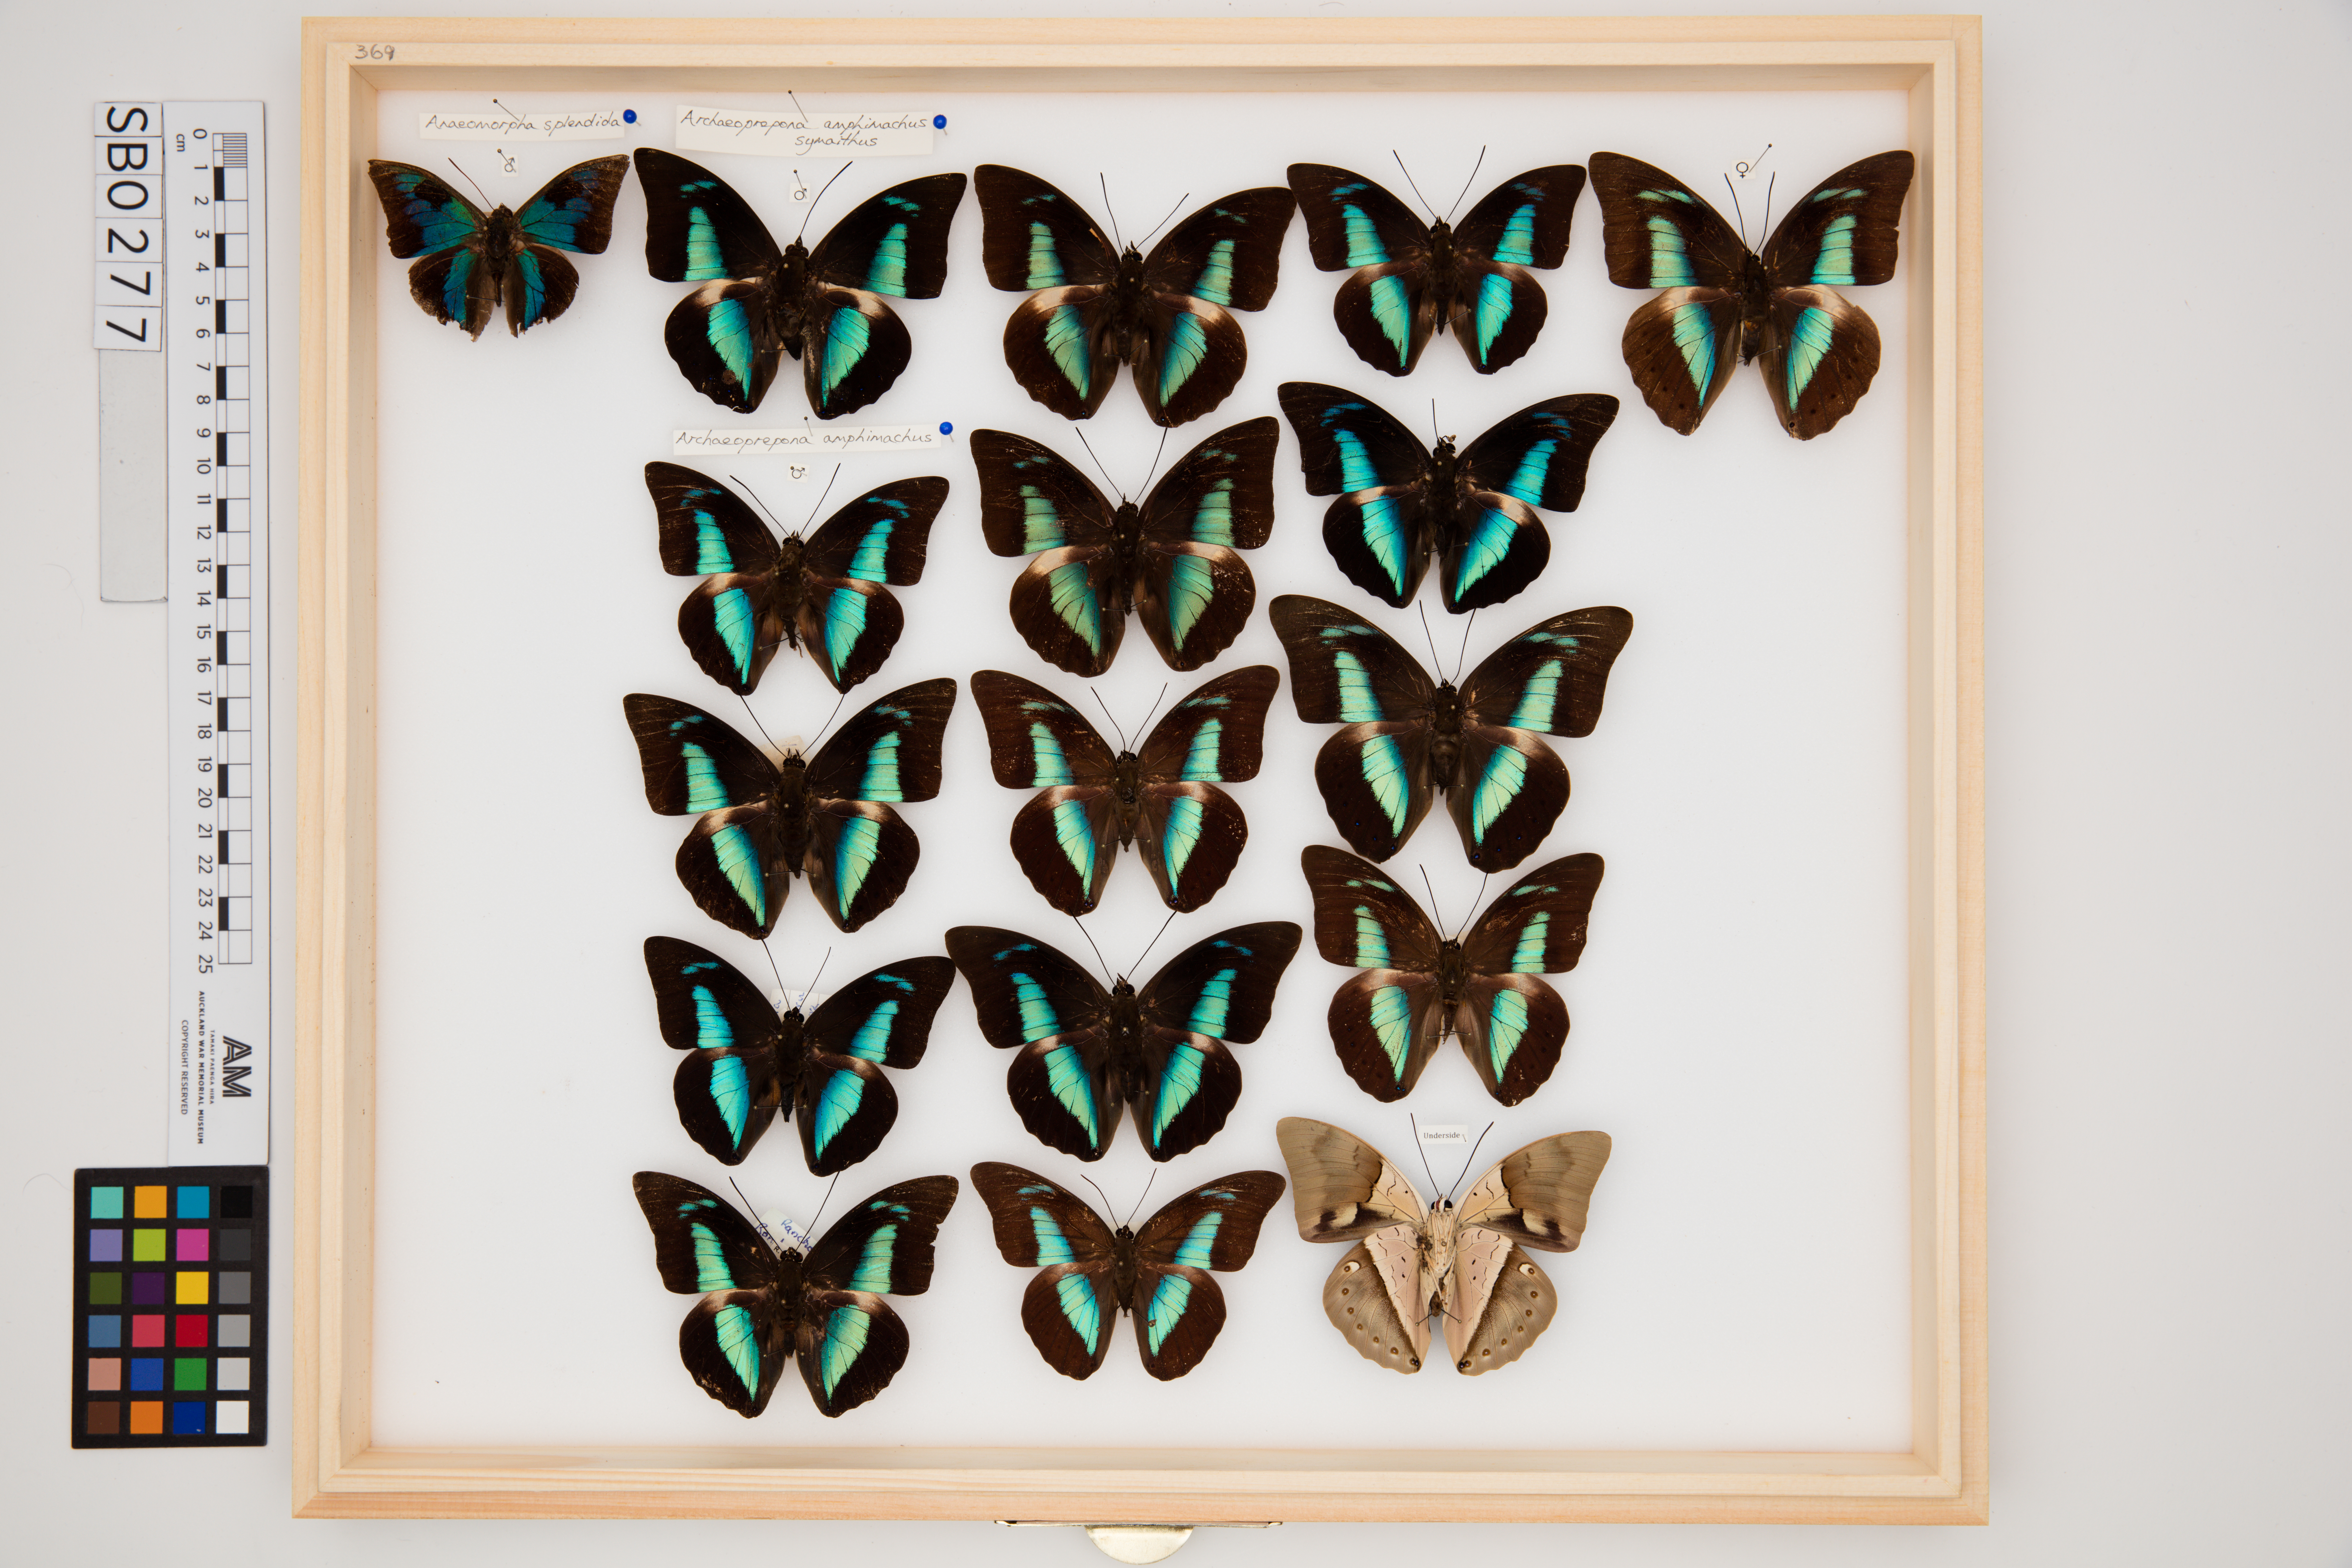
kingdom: Animalia
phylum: Arthropoda
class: Insecta
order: Lepidoptera
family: Nymphalidae
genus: Prepona
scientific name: Prepona meander
